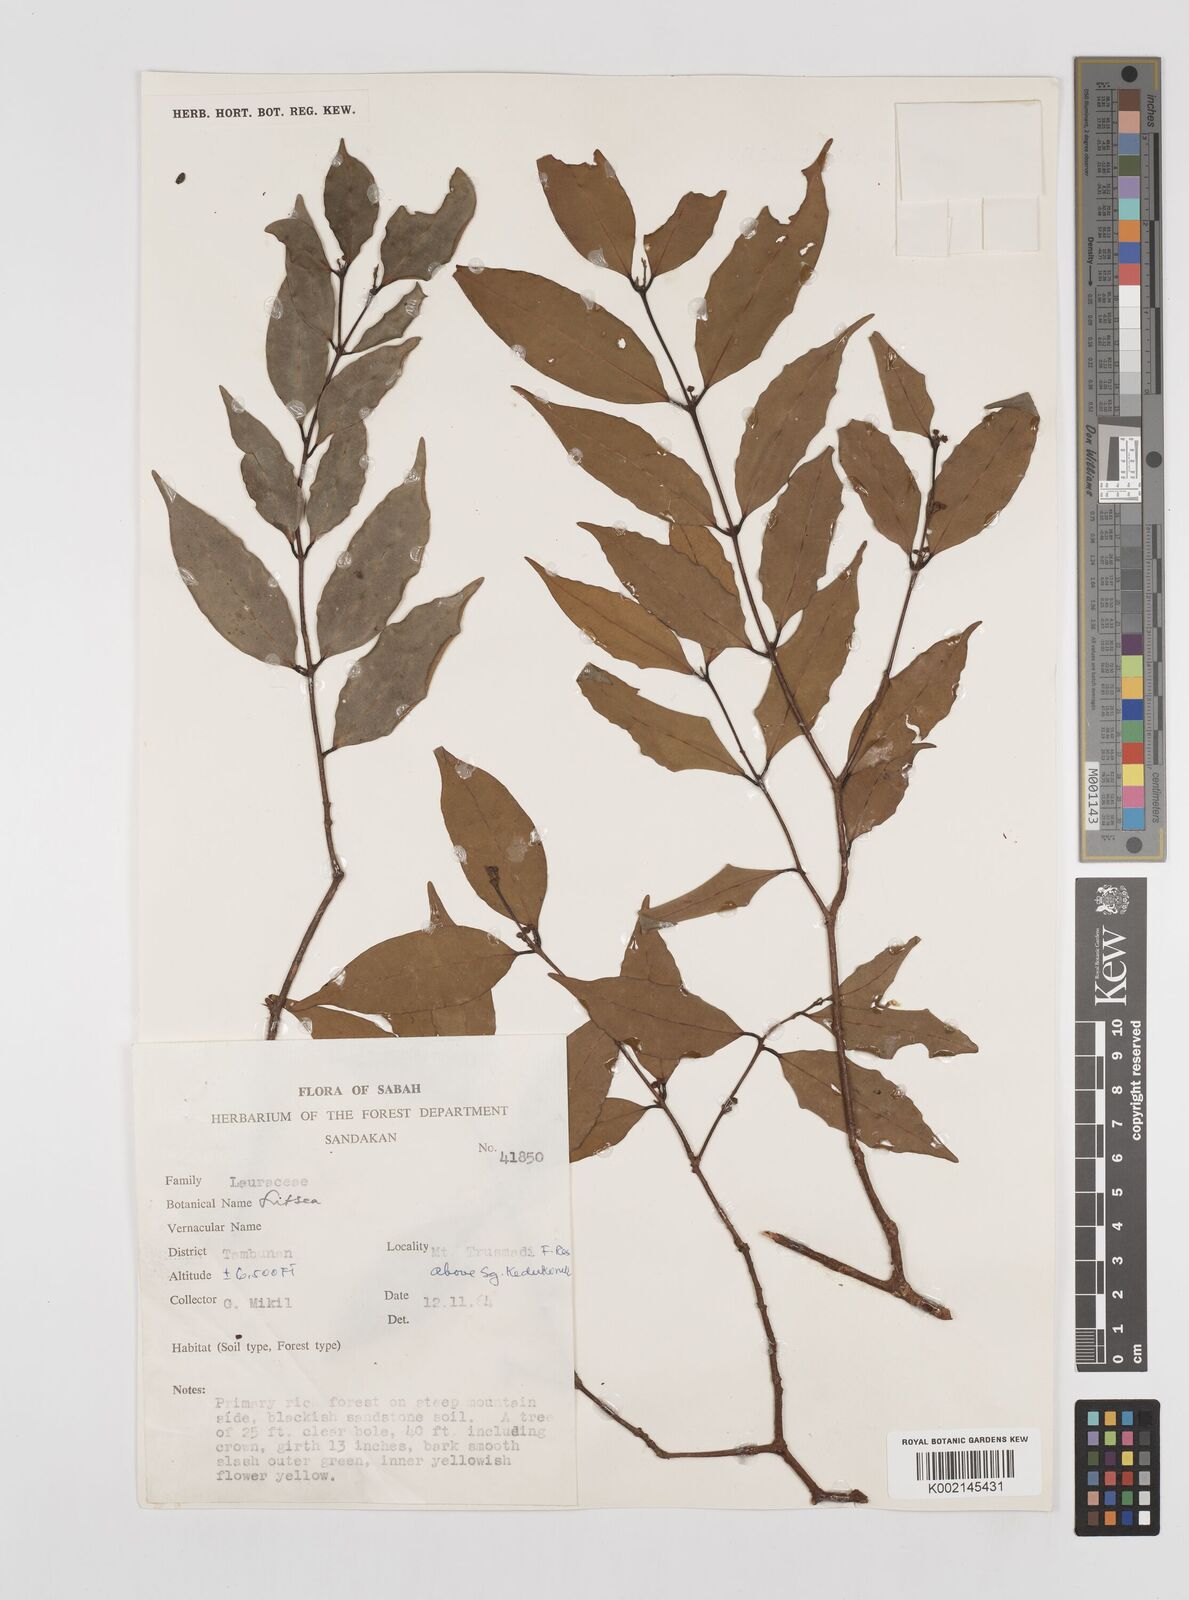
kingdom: Plantae
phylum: Tracheophyta
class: Magnoliopsida
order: Laurales
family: Lauraceae
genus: Litsea
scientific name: Litsea
